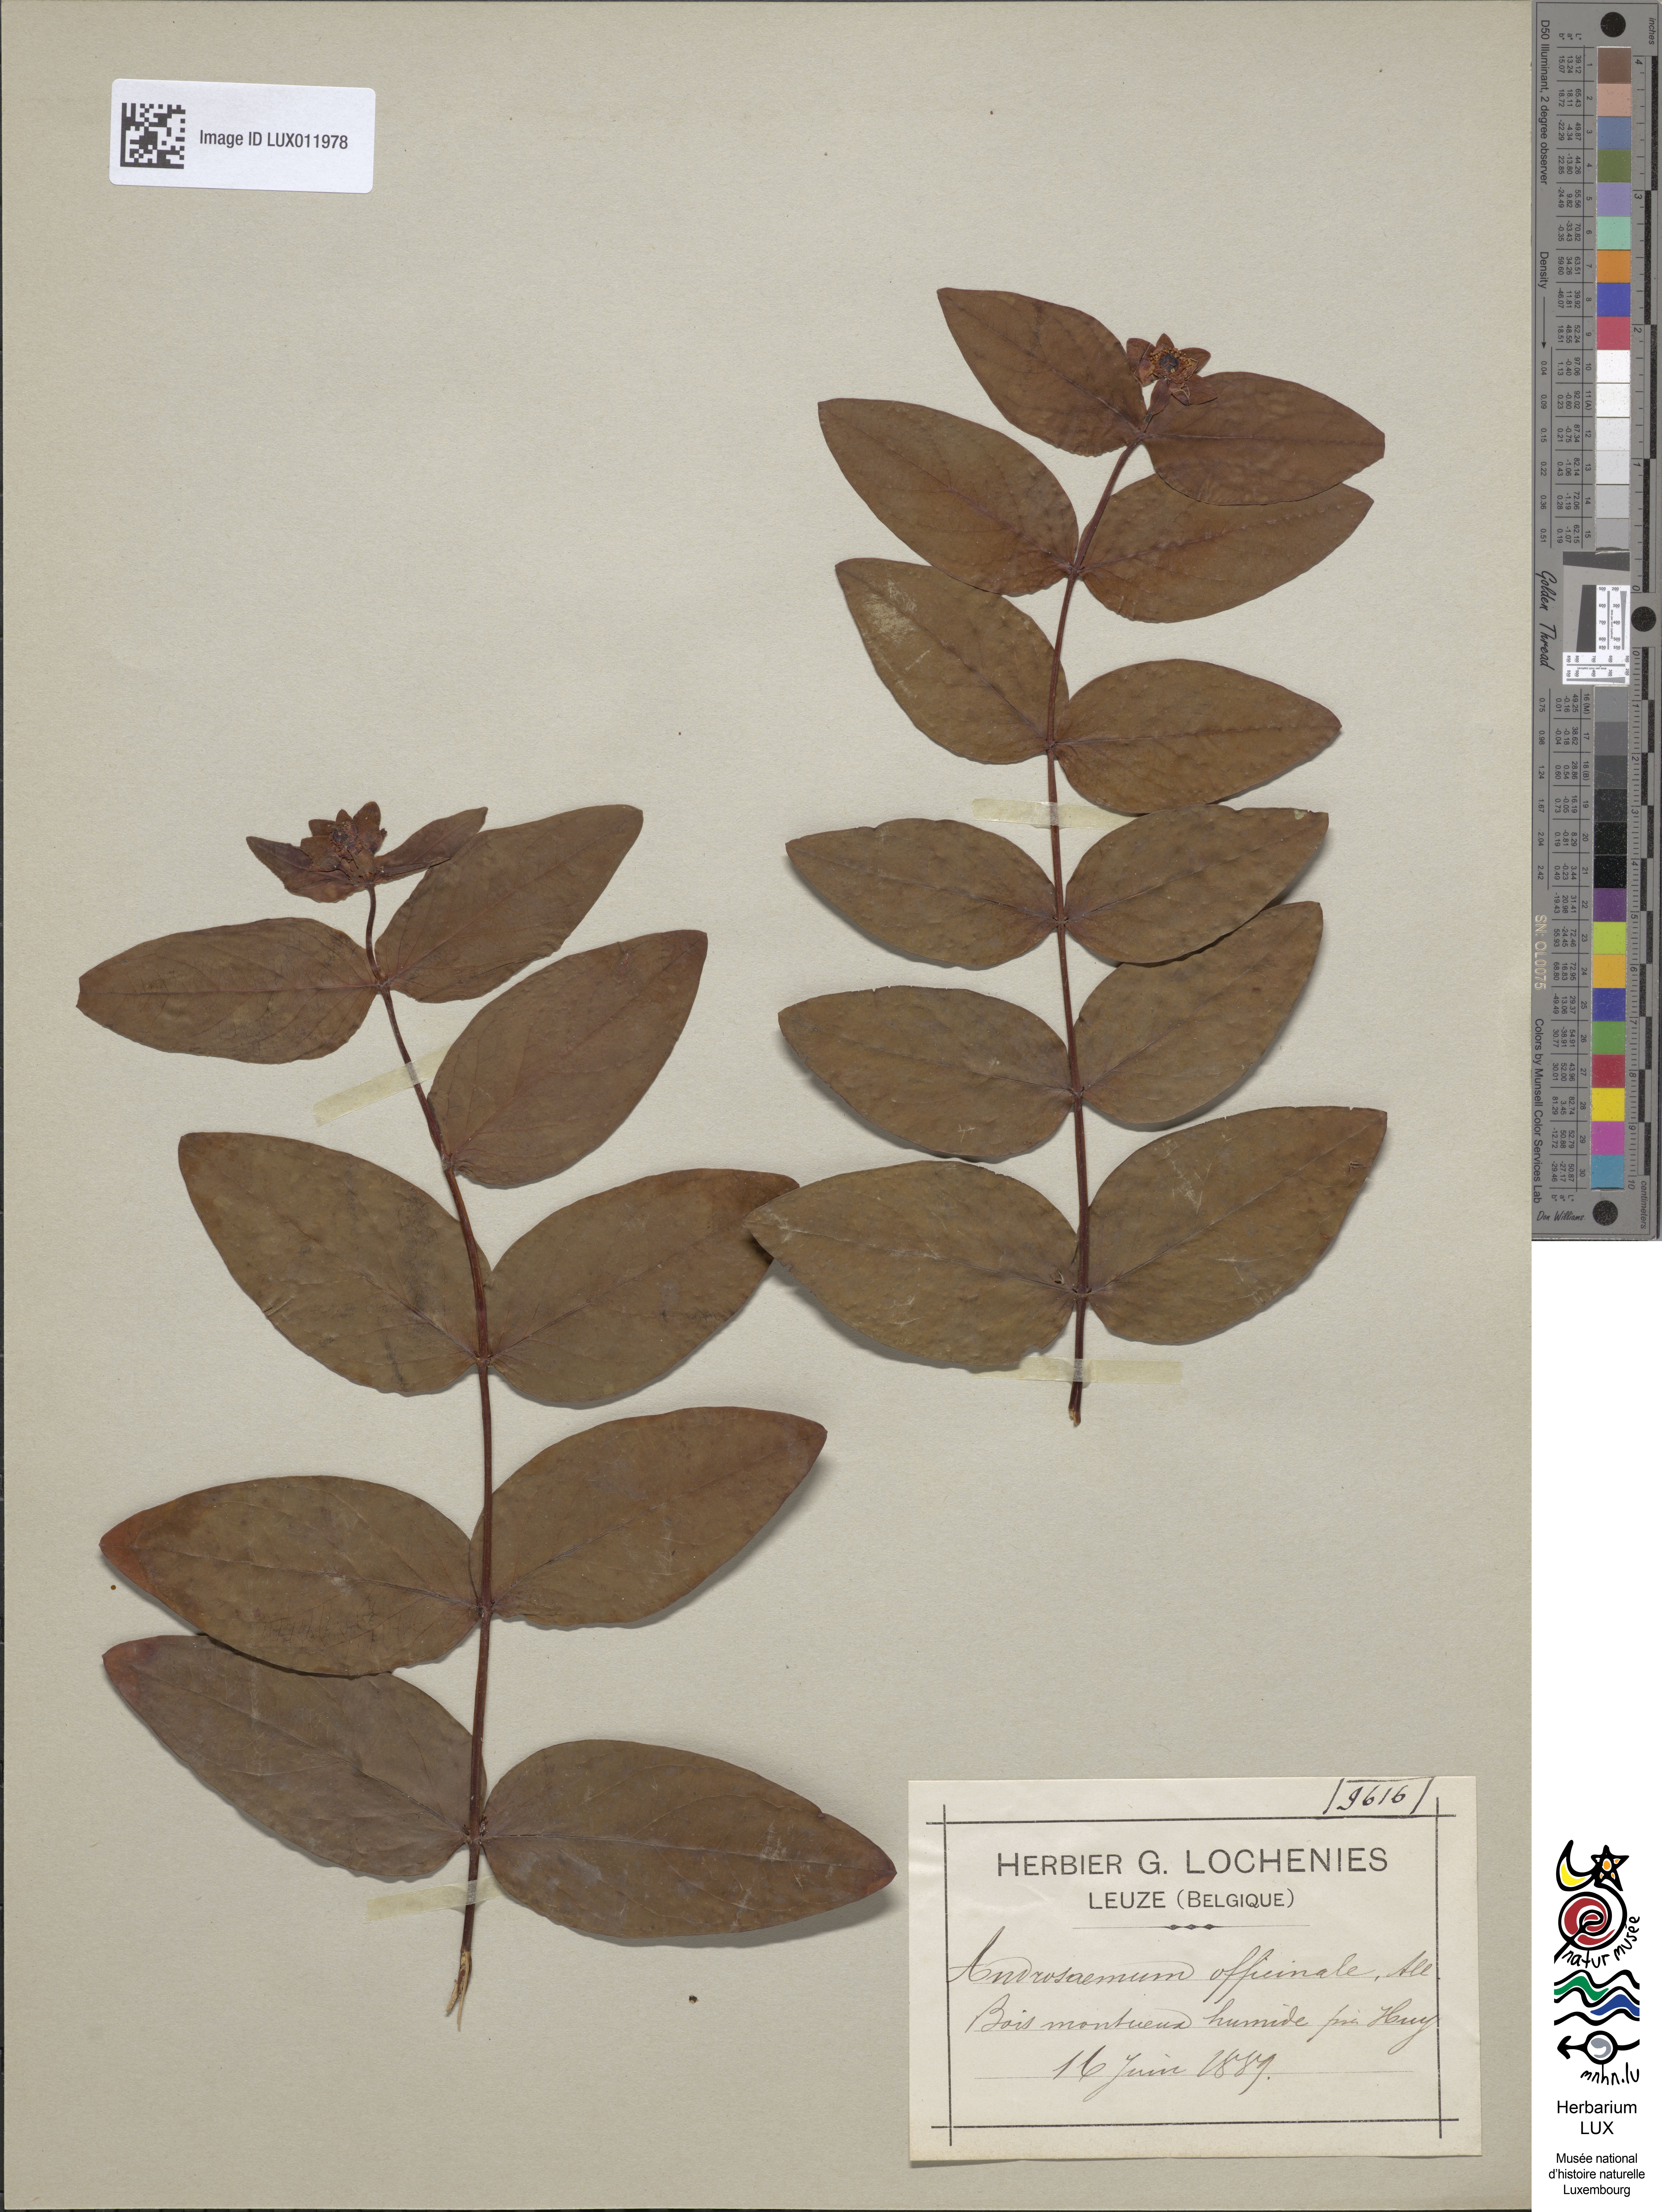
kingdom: Plantae
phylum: Tracheophyta
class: Magnoliopsida
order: Malpighiales
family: Hypericaceae
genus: Hypericum
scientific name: Hypericum androsaemum
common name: Sweet-amber
